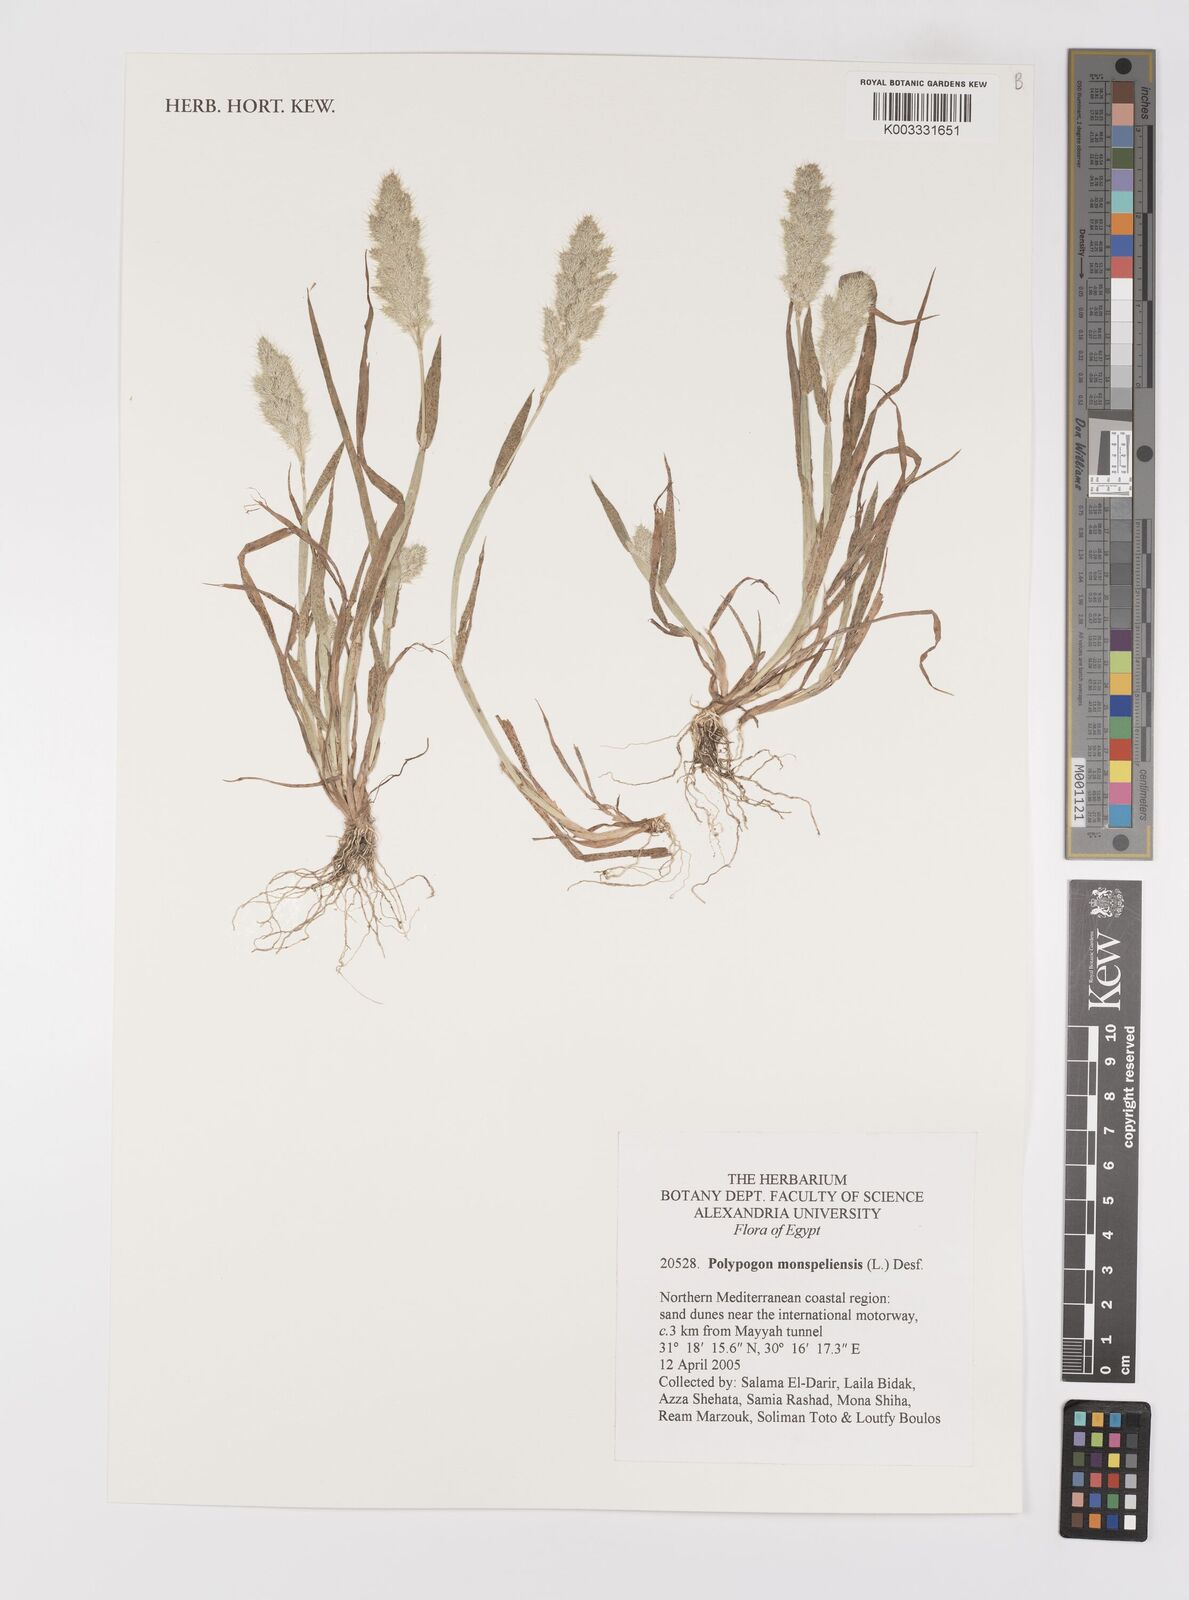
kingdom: Plantae
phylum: Tracheophyta
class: Liliopsida
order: Poales
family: Poaceae
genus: Polypogon
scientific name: Polypogon monspeliensis
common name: Annual rabbitsfoot grass
